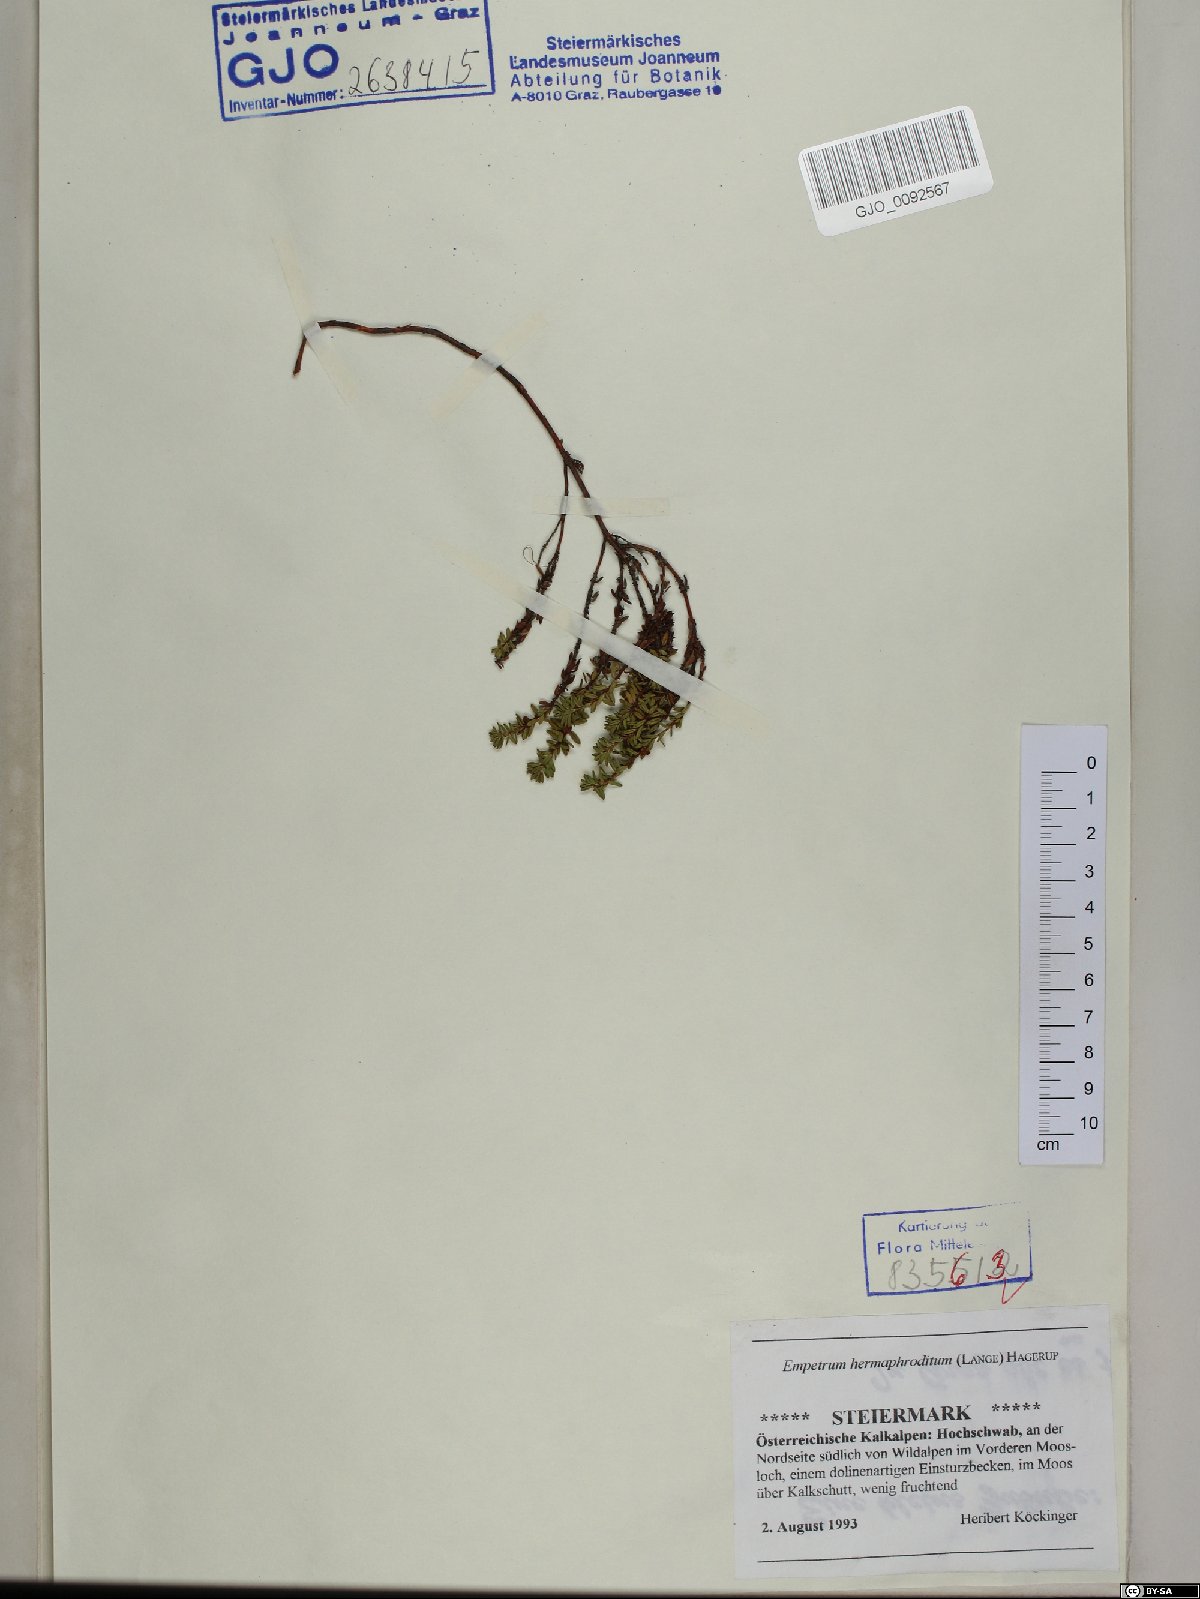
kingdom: Plantae
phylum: Tracheophyta
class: Magnoliopsida
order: Ericales
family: Ericaceae
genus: Empetrum
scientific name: Empetrum hermaphroditum
